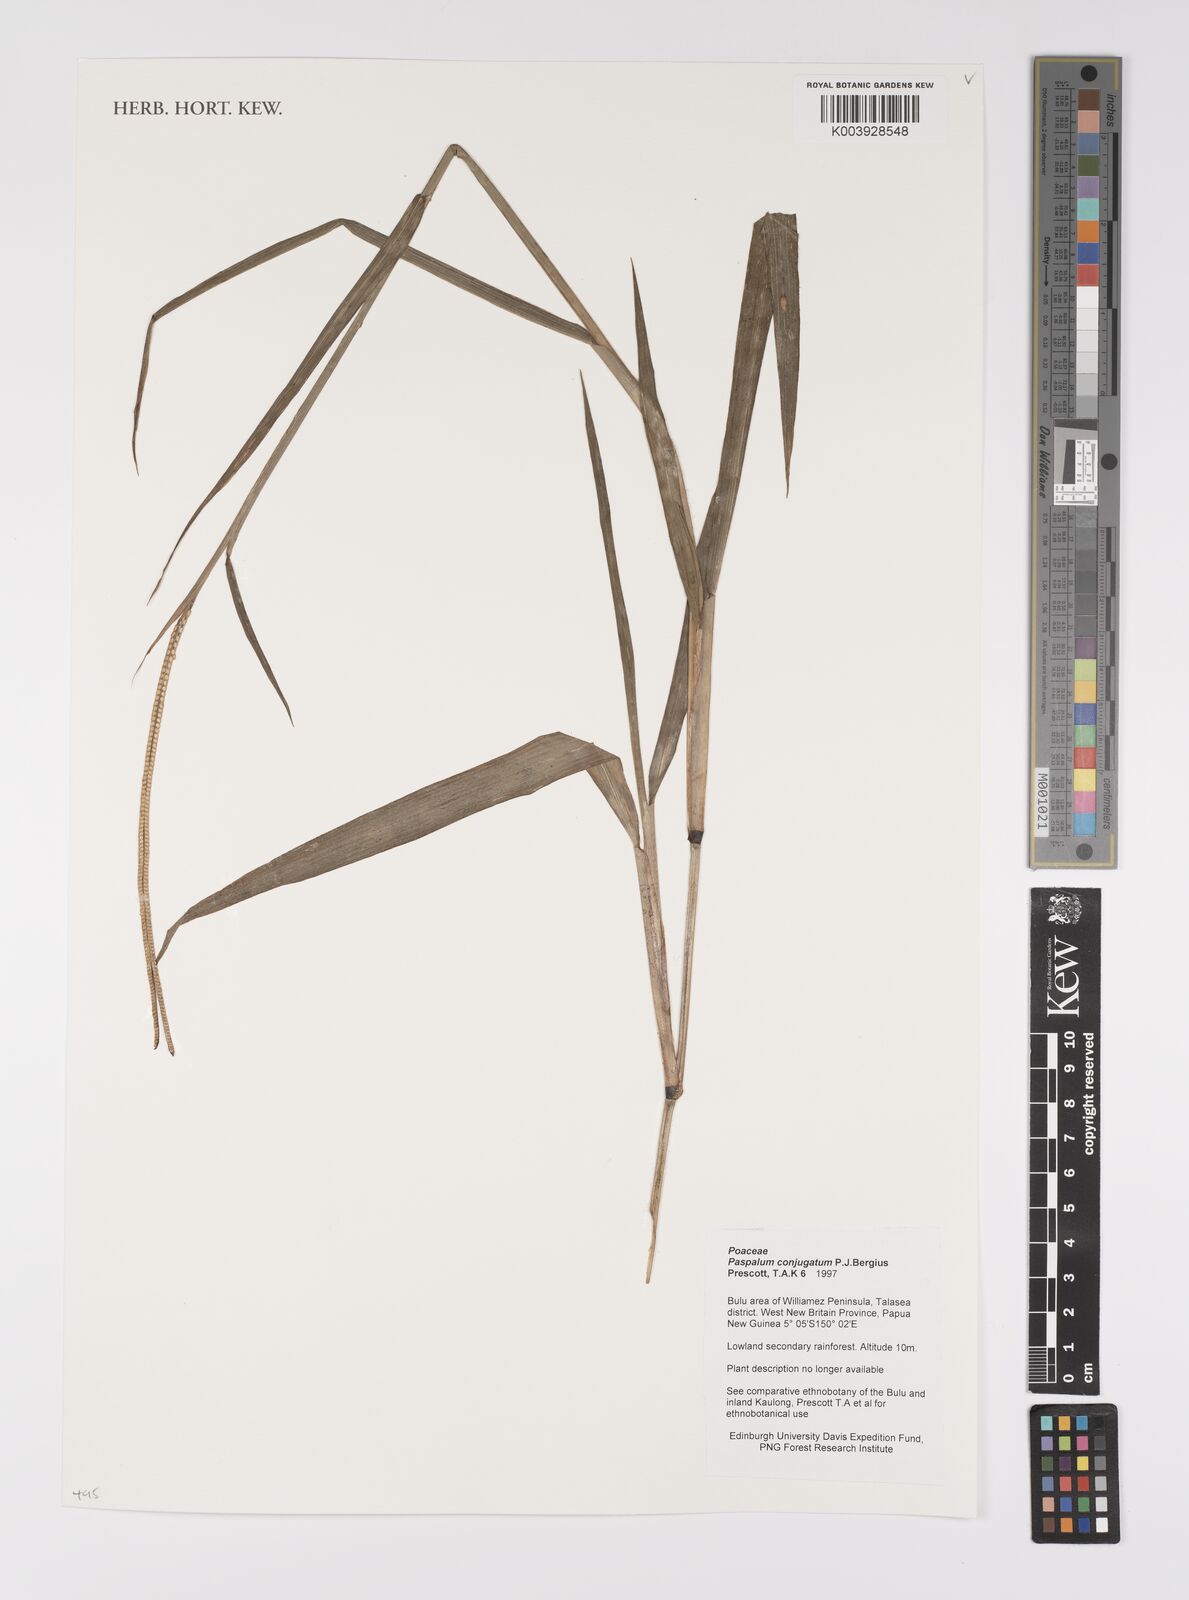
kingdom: Plantae
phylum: Tracheophyta
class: Liliopsida
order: Poales
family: Poaceae
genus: Paspalum
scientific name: Paspalum conjugatum
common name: Hilograss
